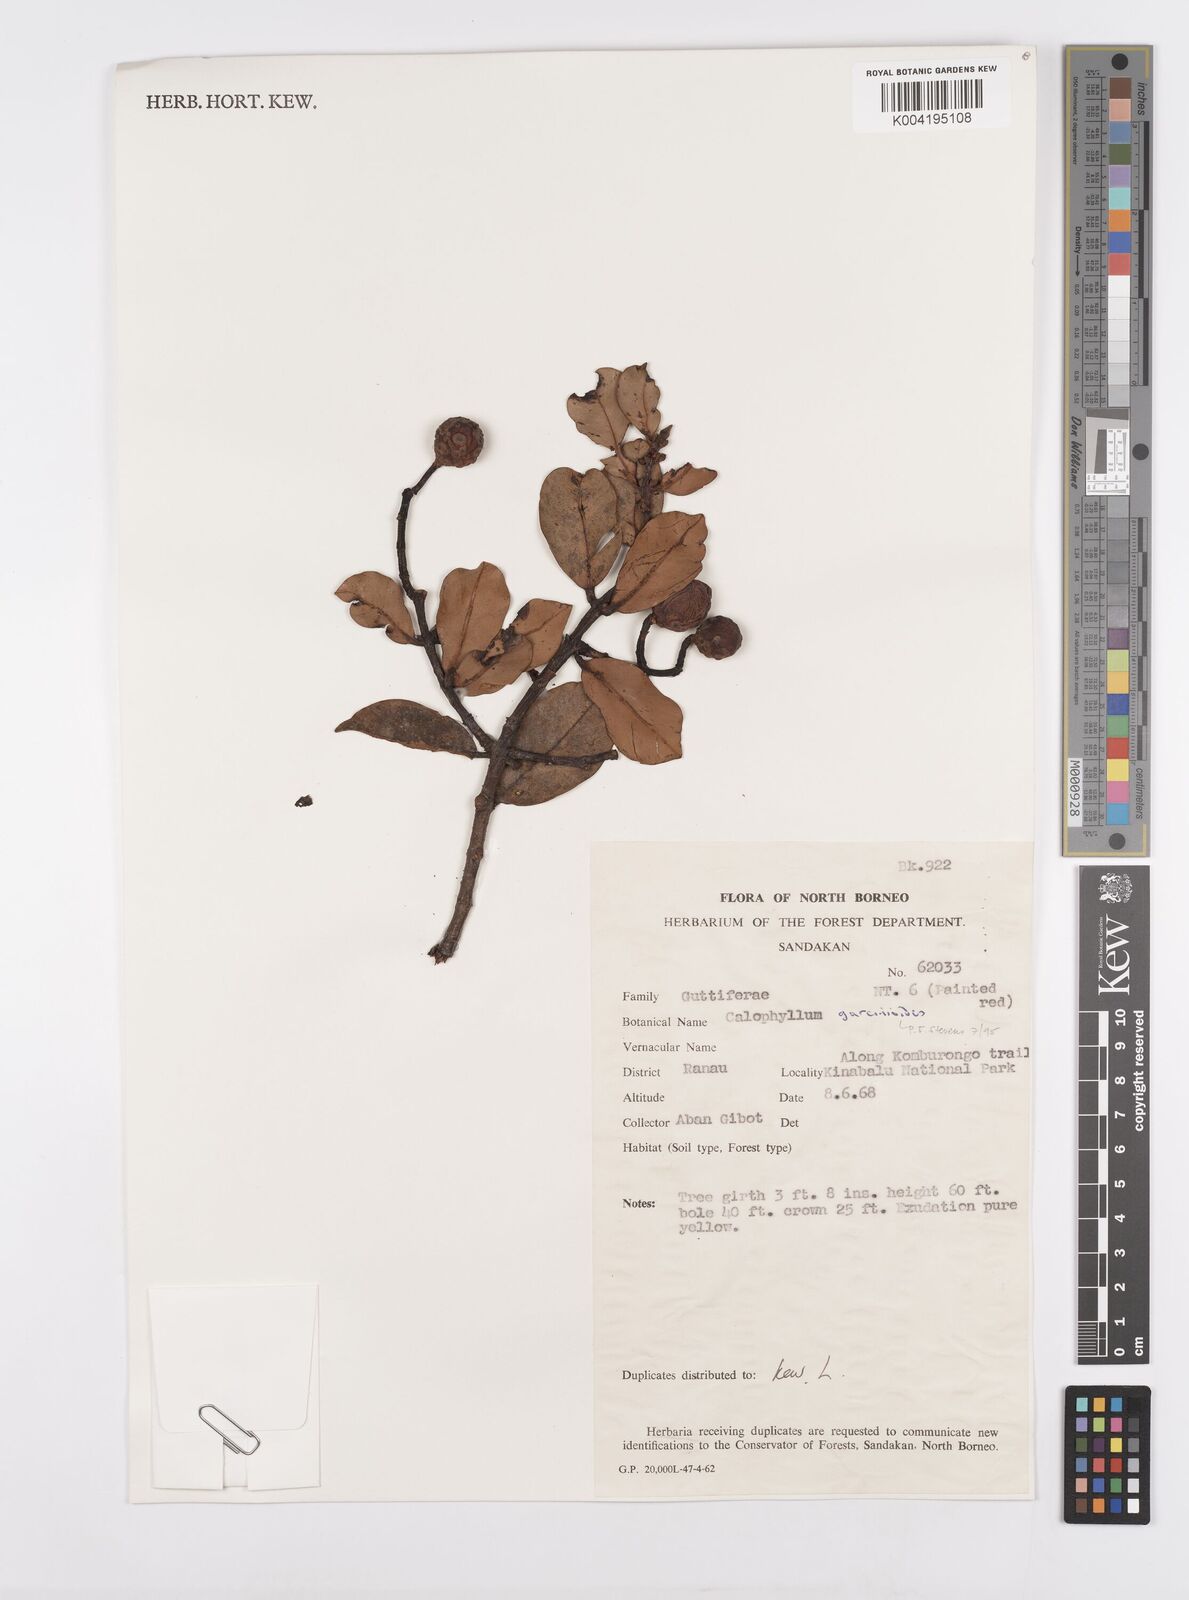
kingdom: Plantae
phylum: Tracheophyta
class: Magnoliopsida
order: Malpighiales
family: Calophyllaceae
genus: Calophyllum
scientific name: Calophyllum garcinioides
